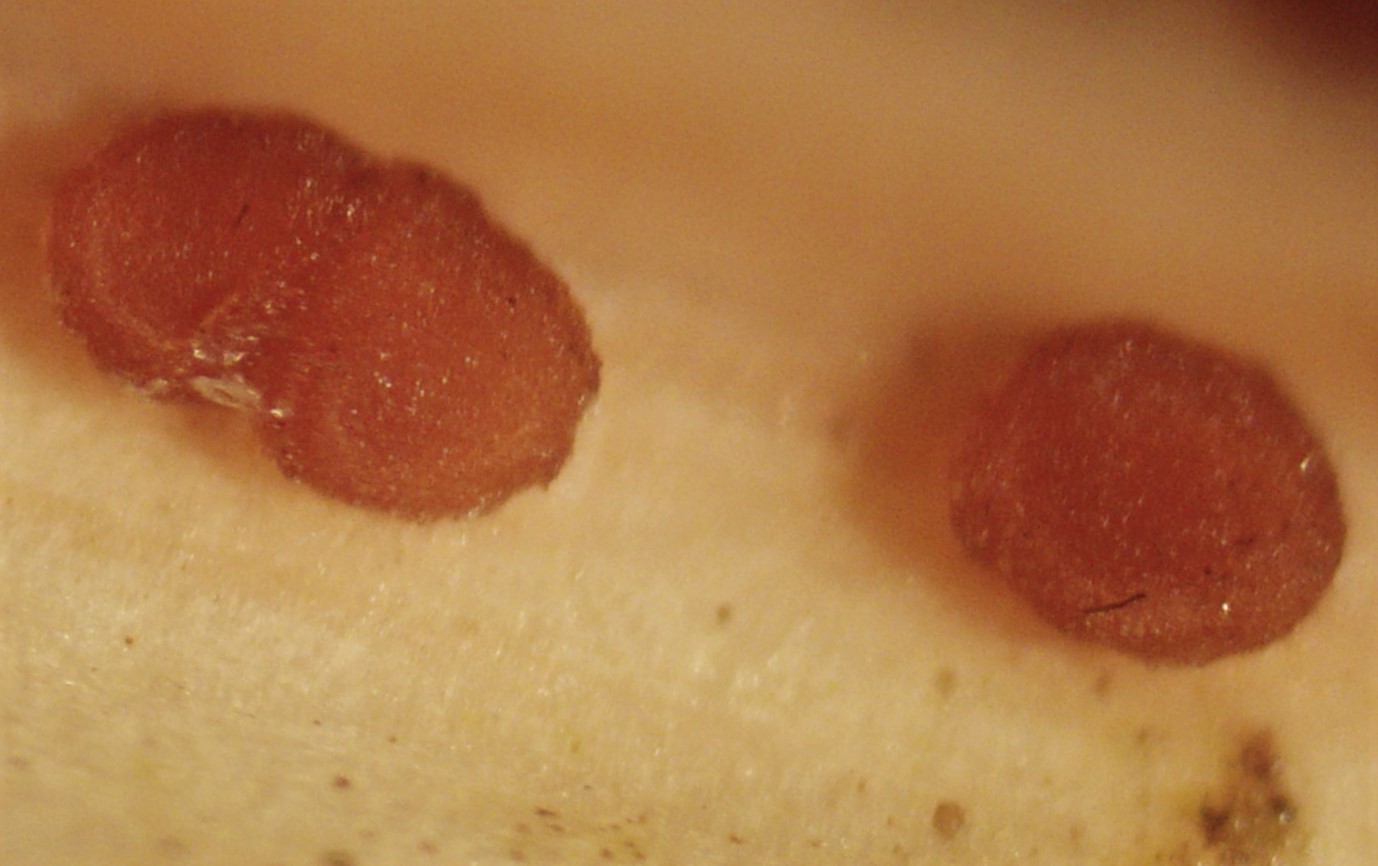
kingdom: Fungi
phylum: Ascomycota
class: Leotiomycetes
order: Helotiales
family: Calloriaceae
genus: Calloria
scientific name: Calloria urticae
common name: nælde-orangeskive
